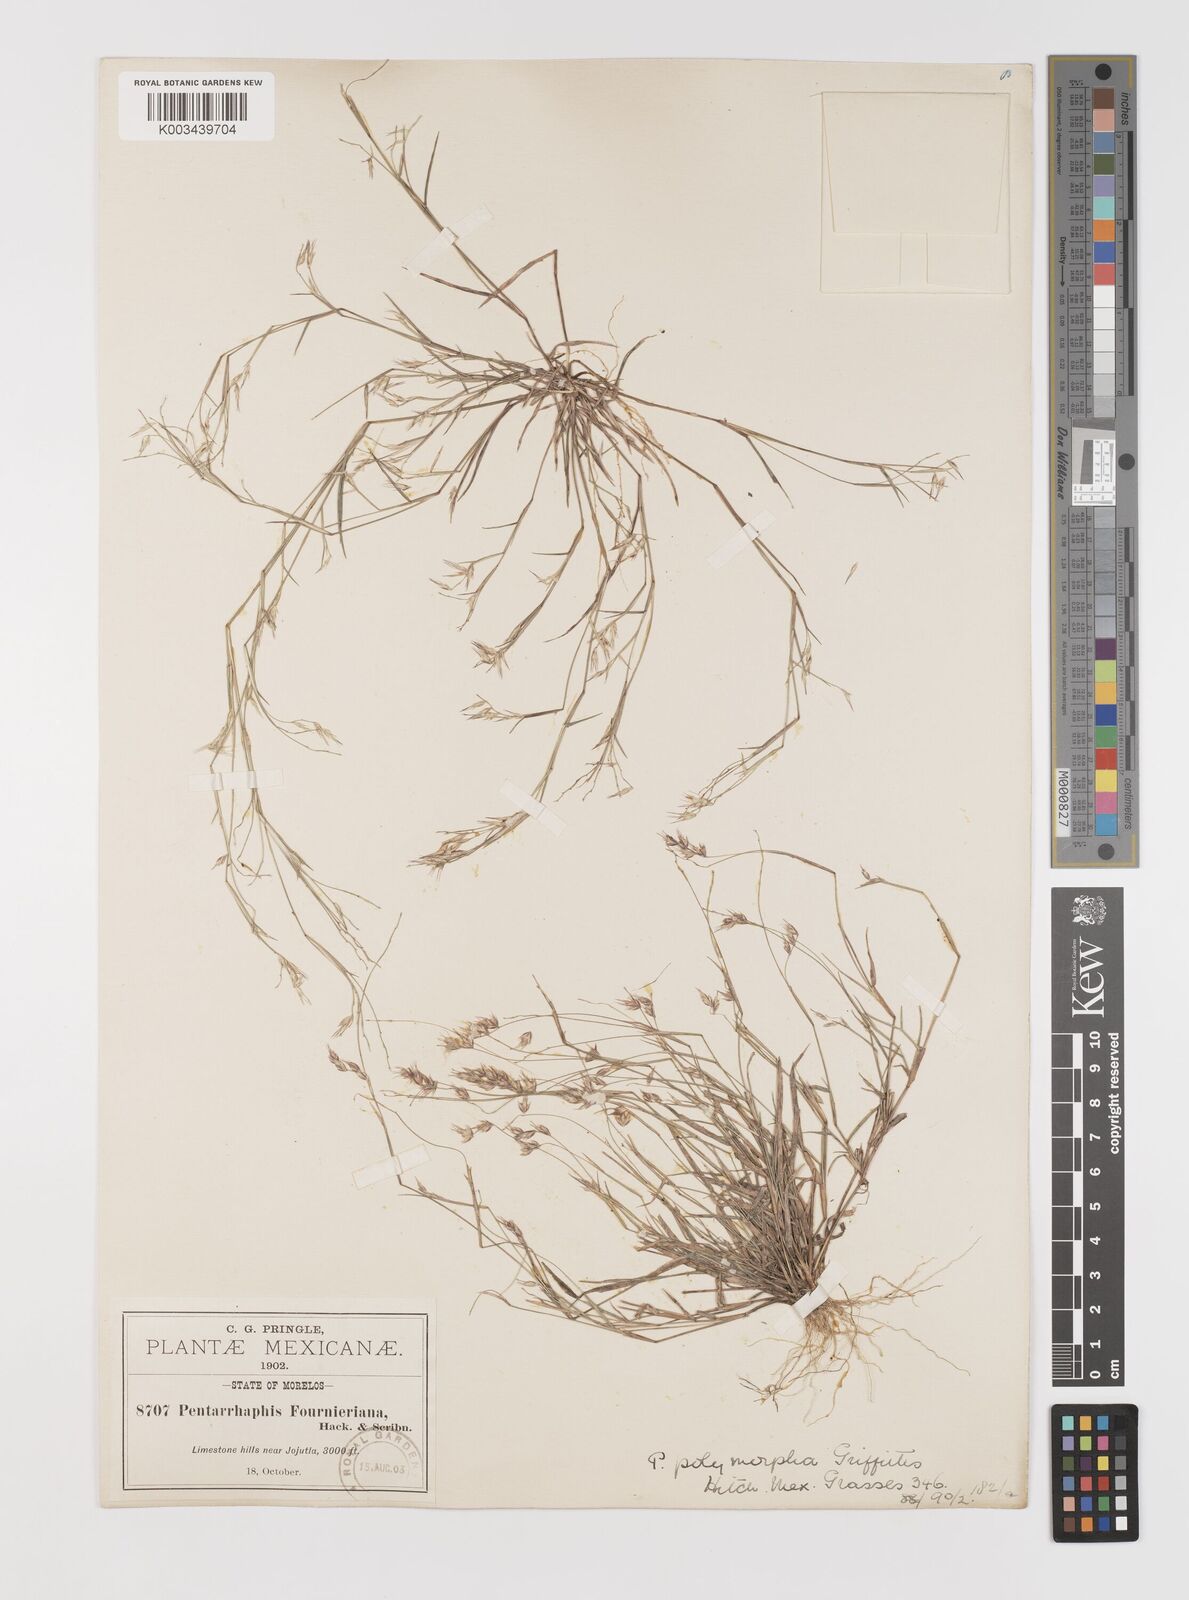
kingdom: Plantae
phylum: Tracheophyta
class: Liliopsida
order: Poales
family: Poaceae
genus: Bouteloua
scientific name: Bouteloua polymorpha
